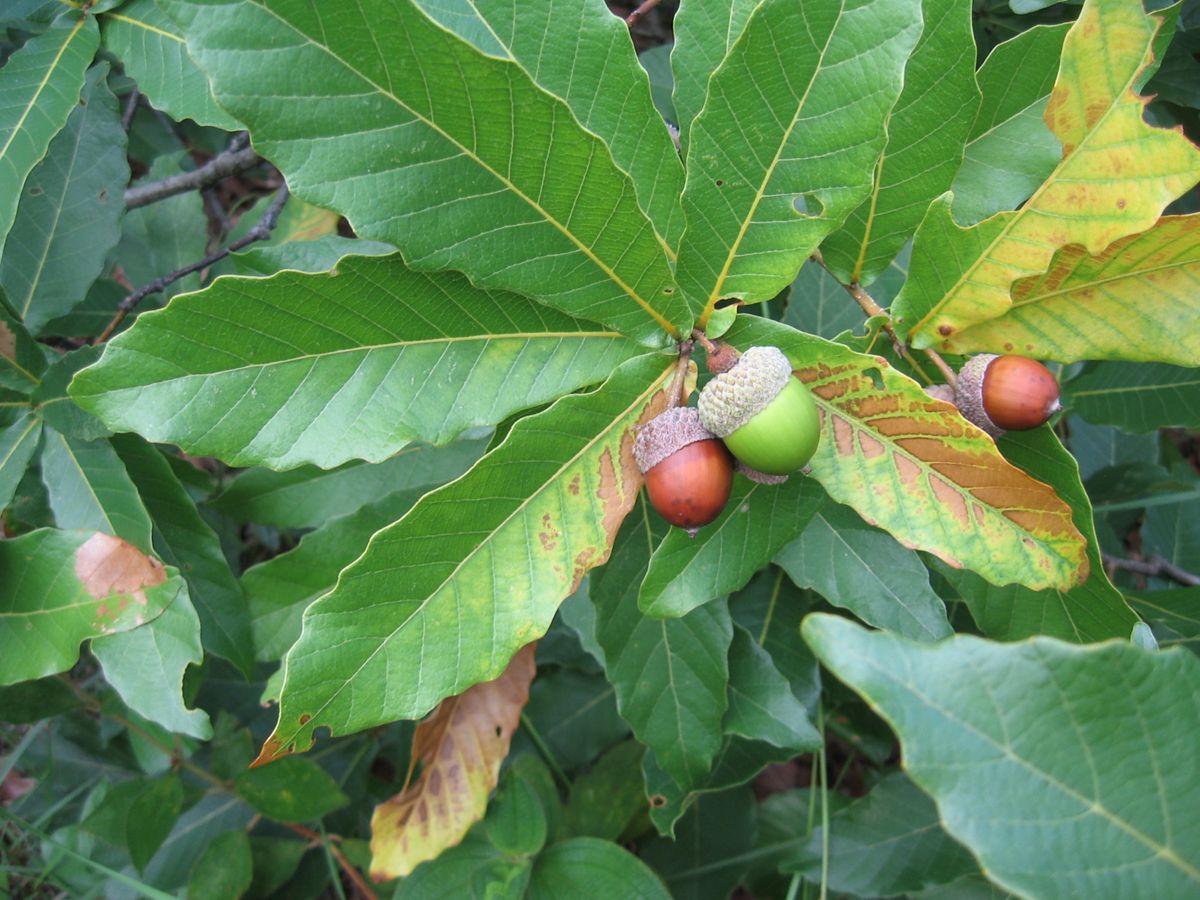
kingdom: Plantae
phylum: Tracheophyta
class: Magnoliopsida
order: Fagales
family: Fagaceae
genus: Quercus
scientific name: Quercus sapotifolia
